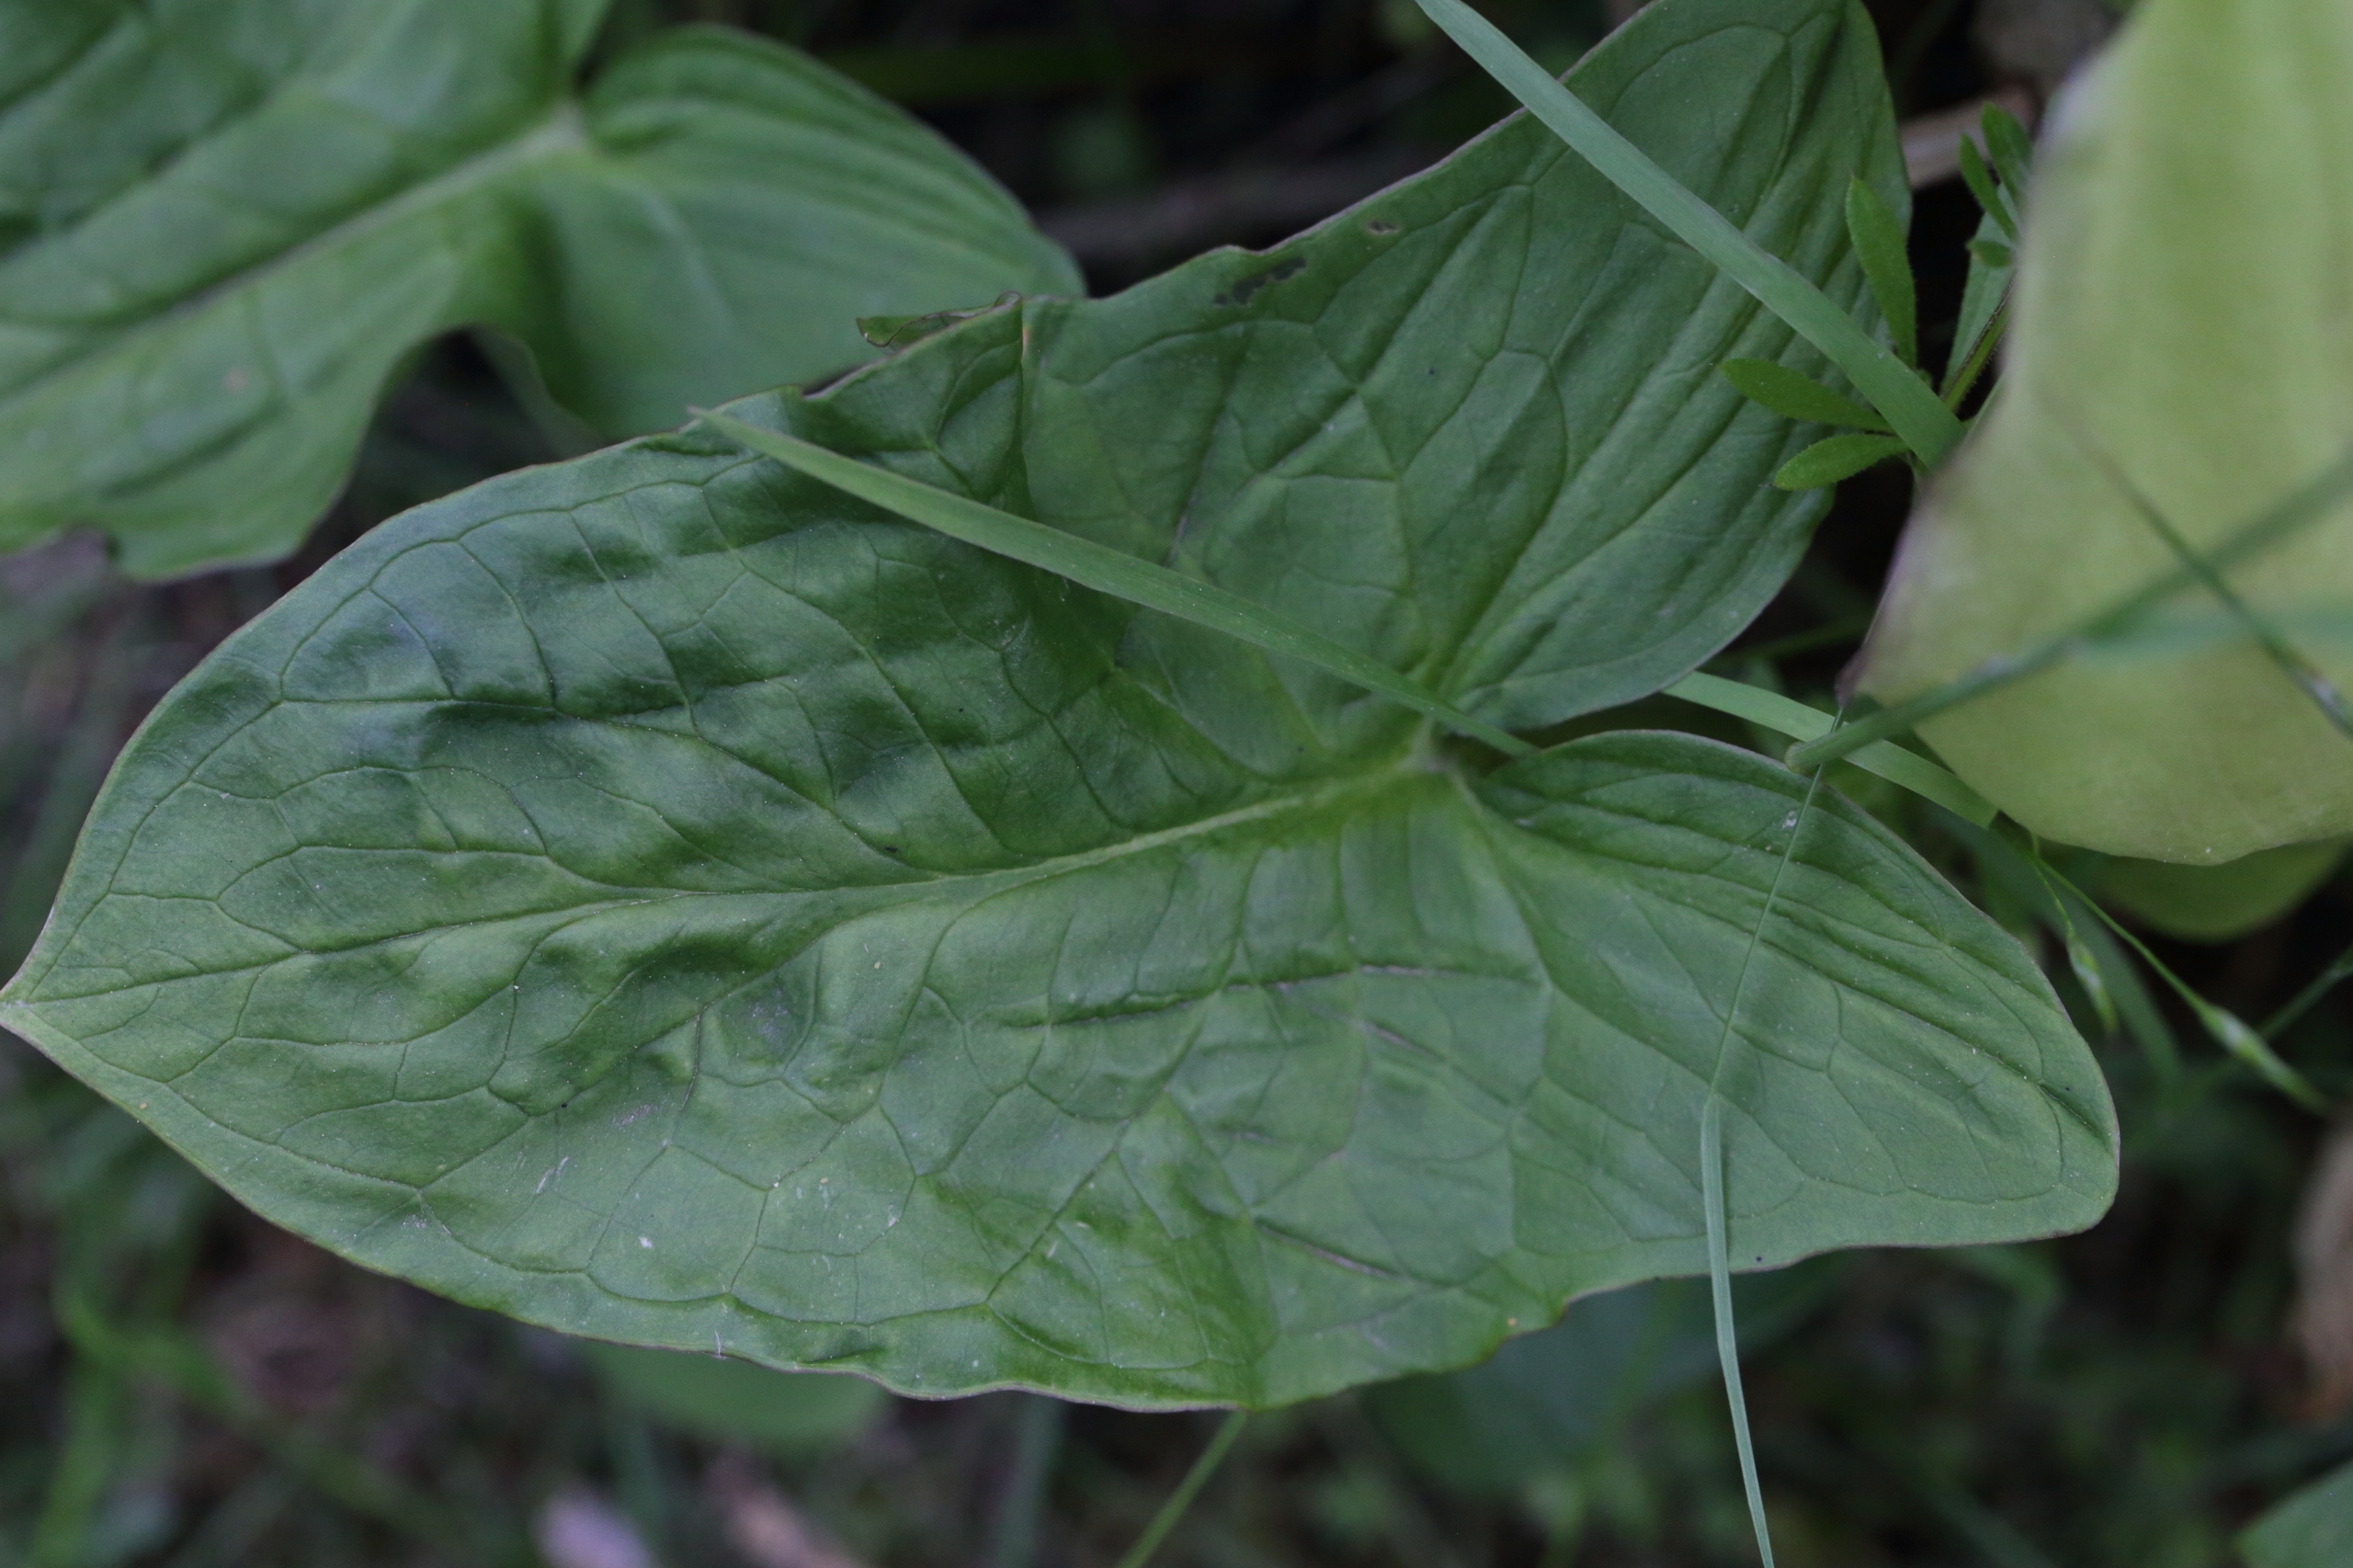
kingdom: Plantae
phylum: Tracheophyta
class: Liliopsida
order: Alismatales
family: Araceae
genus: Arum
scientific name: Arum maculatum
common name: Plettet arum
